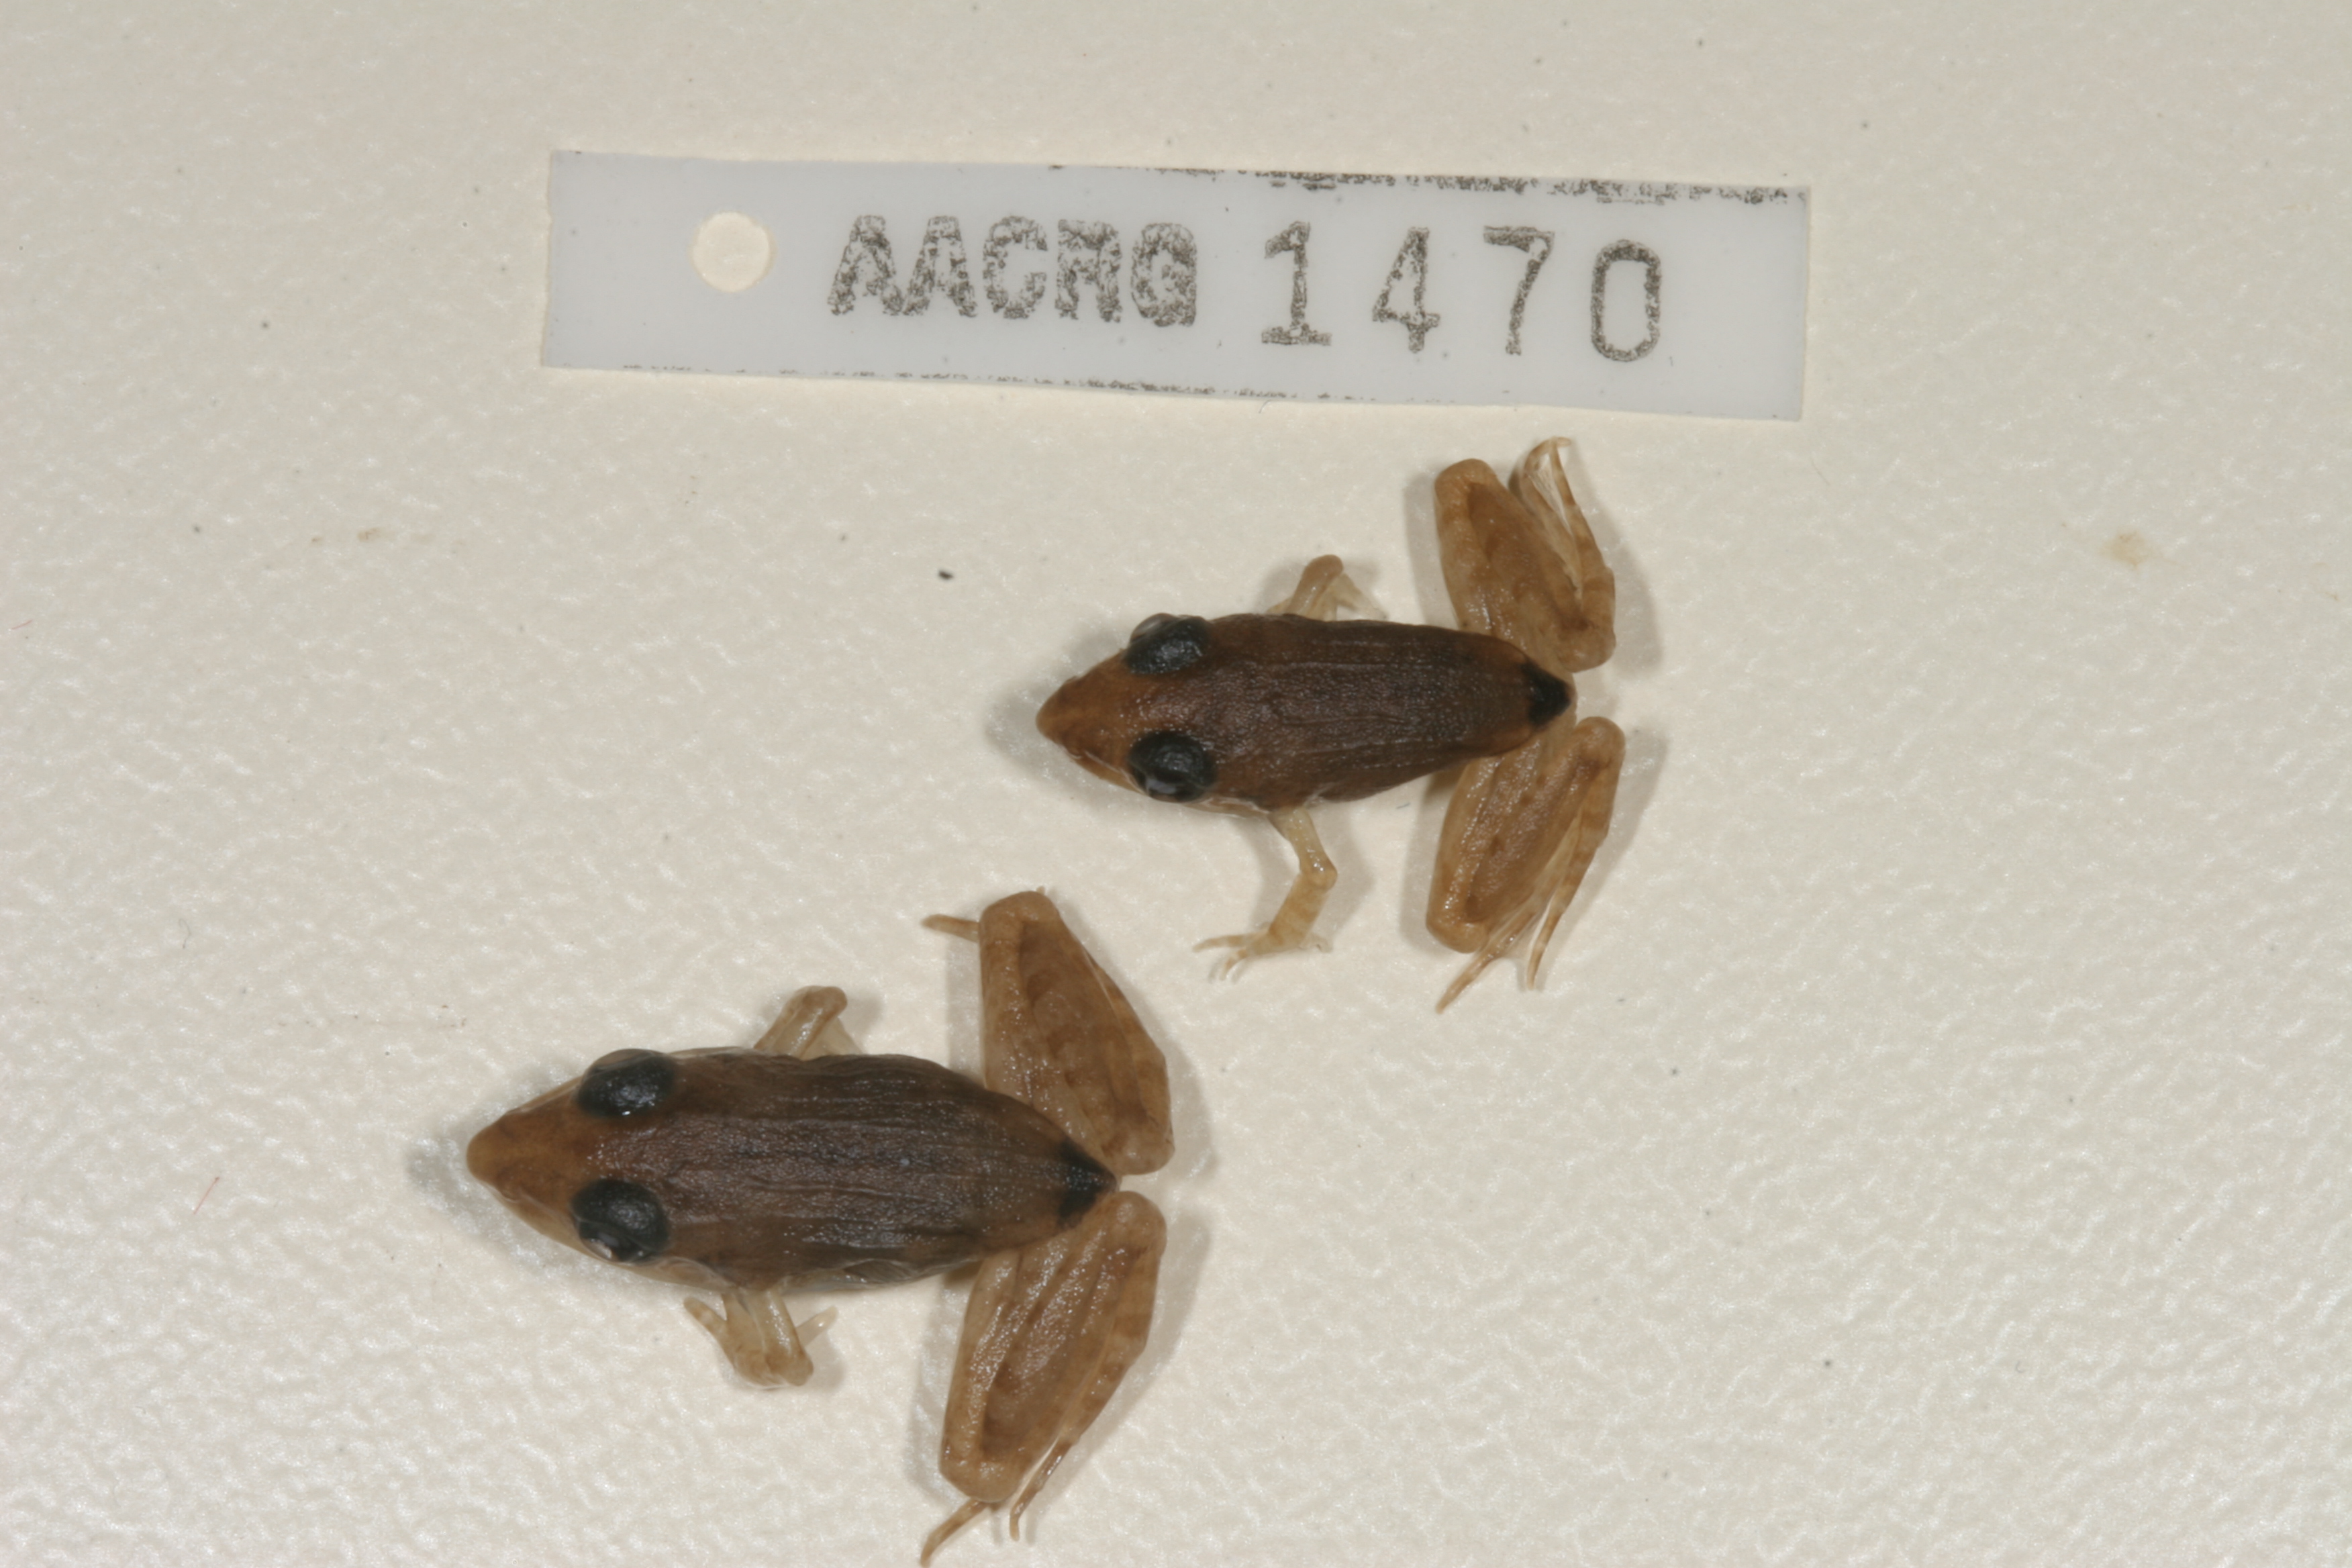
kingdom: Animalia
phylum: Chordata
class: Amphibia
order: Anura
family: Ptychadenidae
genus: Ptychadena
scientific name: Ptychadena anchietae
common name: Anchieta's ridged frog
